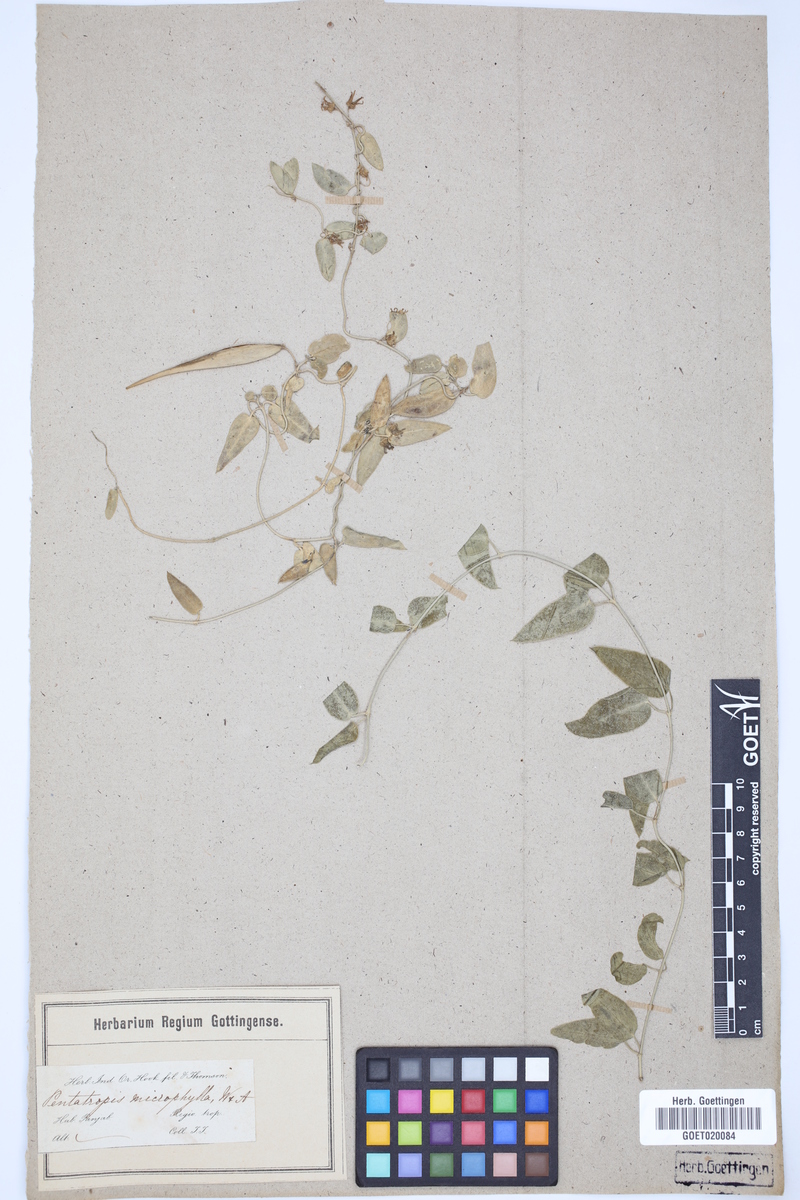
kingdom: Plantae
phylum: Tracheophyta
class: Magnoliopsida
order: Gentianales
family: Apocynaceae
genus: Pentatropis
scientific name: Pentatropis nivalis
